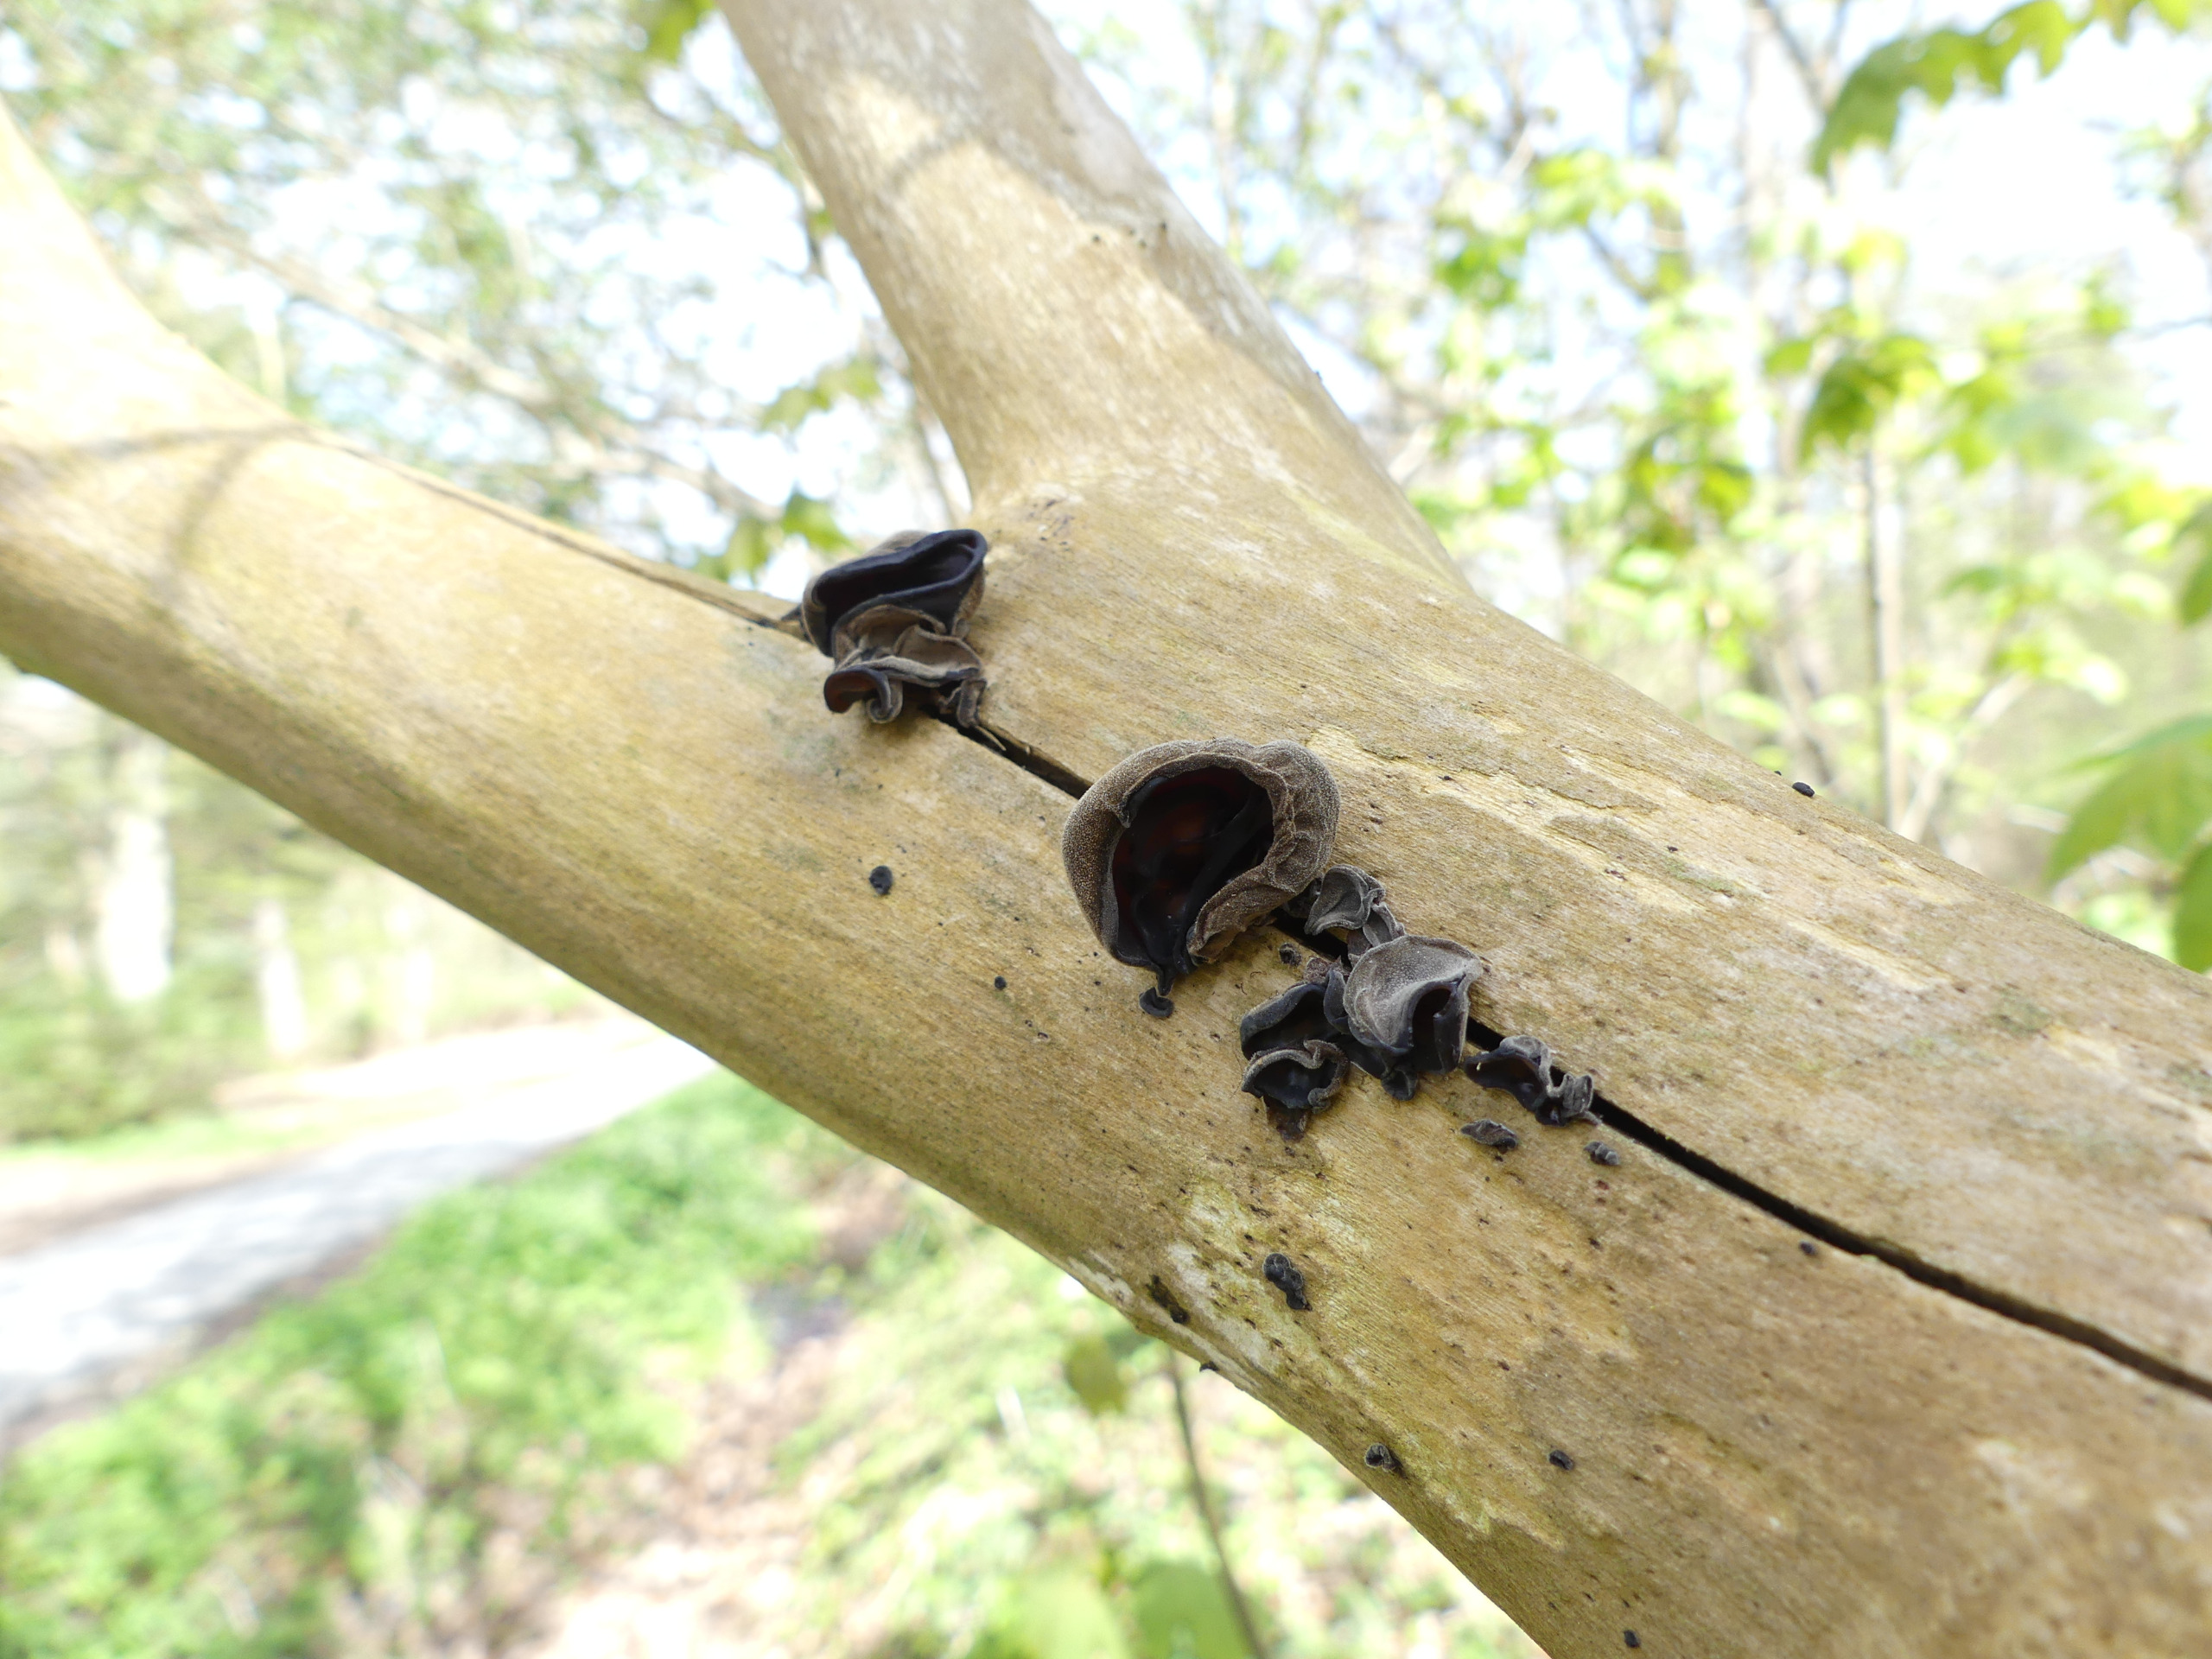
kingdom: Fungi
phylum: Basidiomycota
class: Agaricomycetes
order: Auriculariales
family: Auriculariaceae
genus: Auricularia
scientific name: Auricularia auricula-judae
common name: Almindelig judasøre
